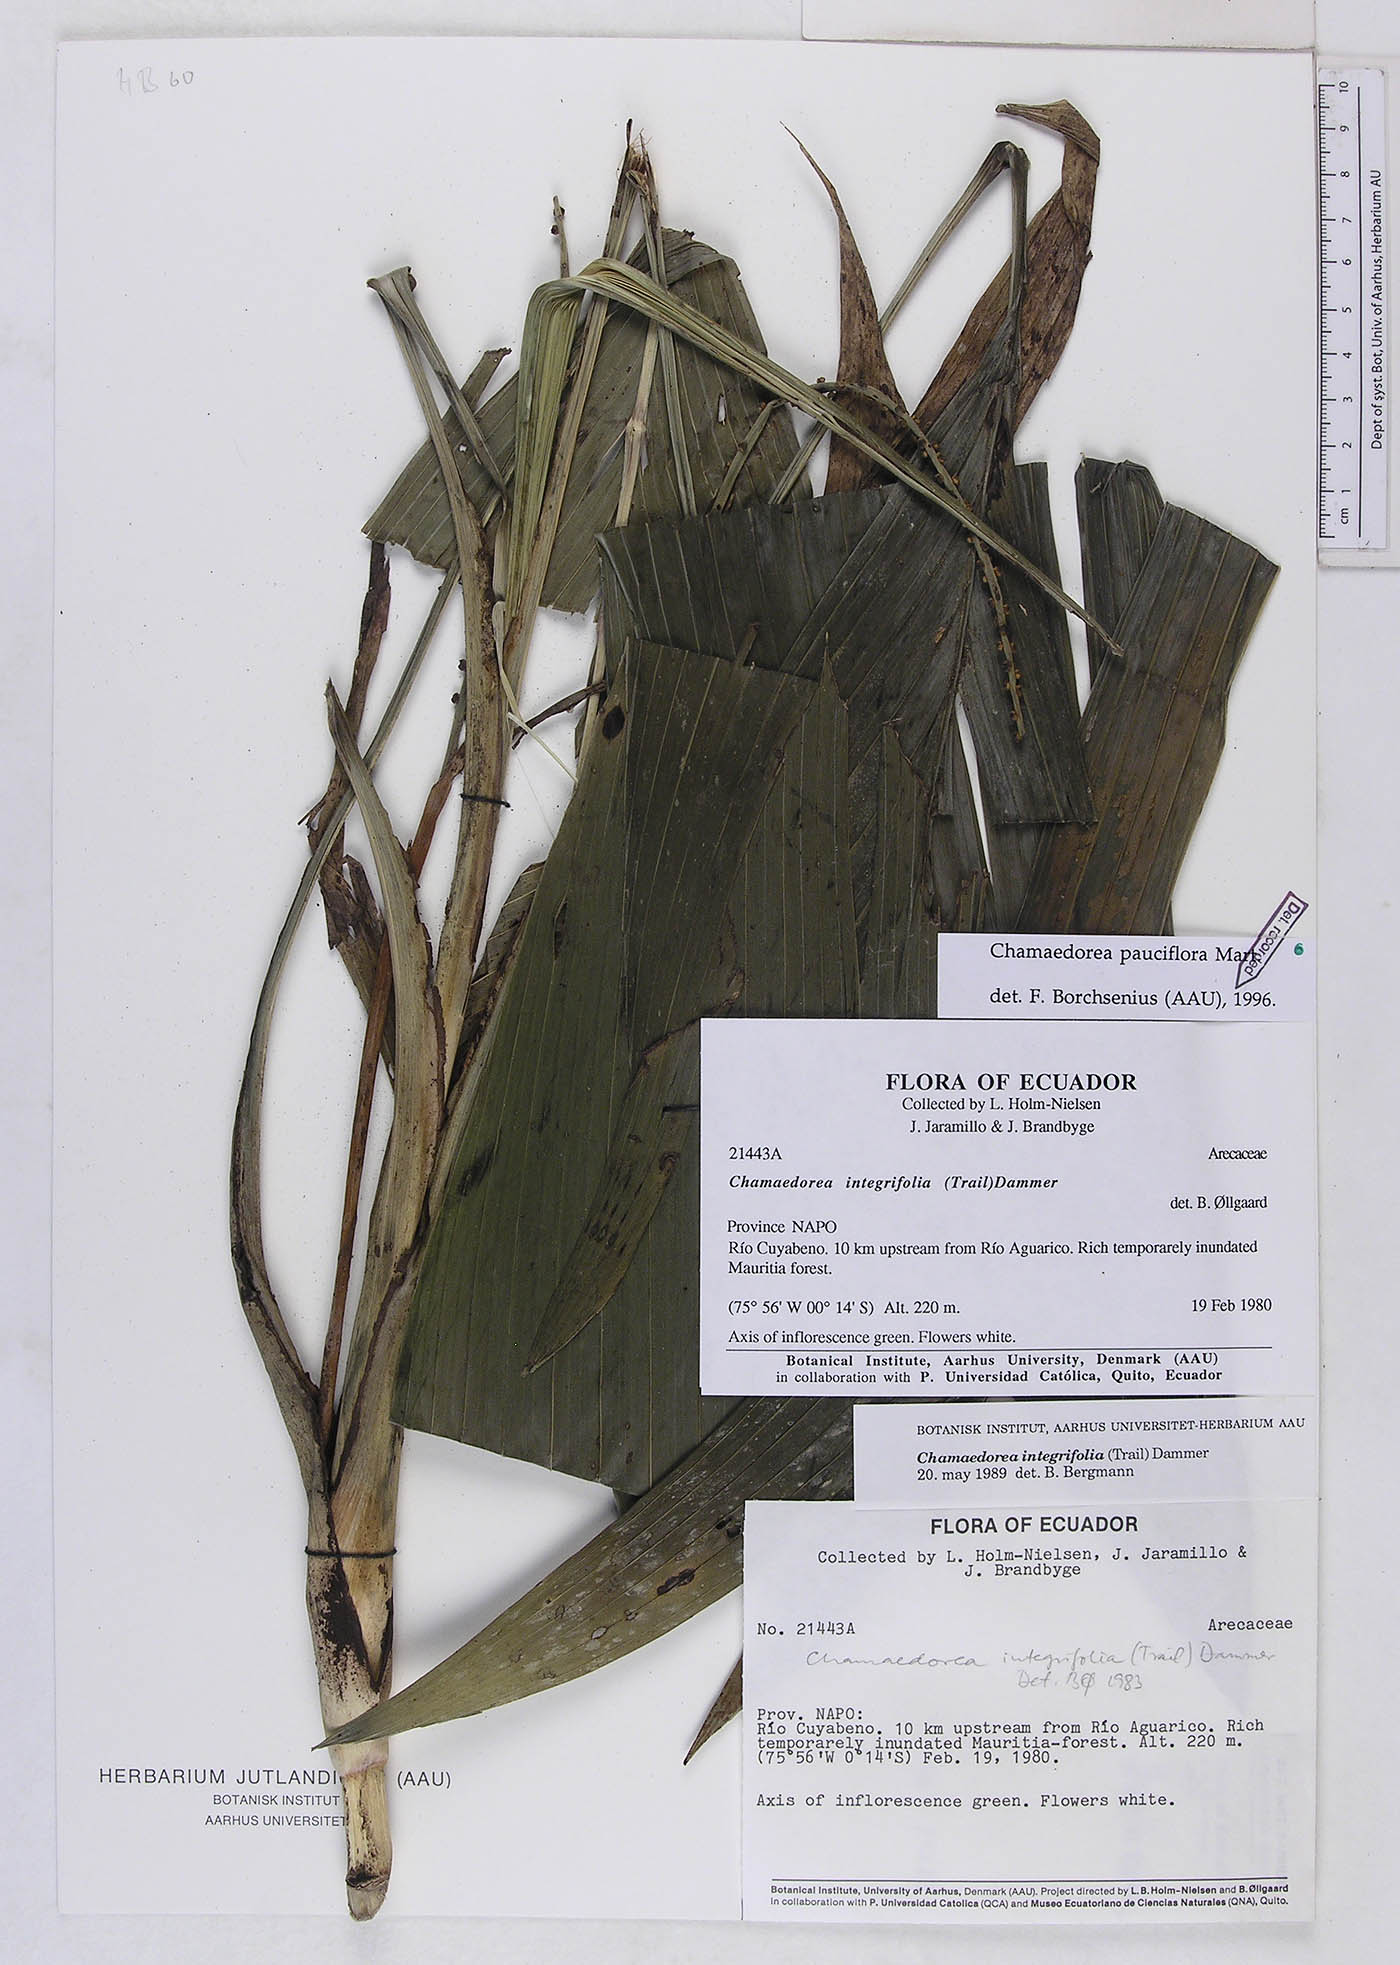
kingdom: Plantae
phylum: Tracheophyta
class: Liliopsida
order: Arecales
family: Arecaceae
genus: Chamaedorea
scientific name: Chamaedorea pauciflora
